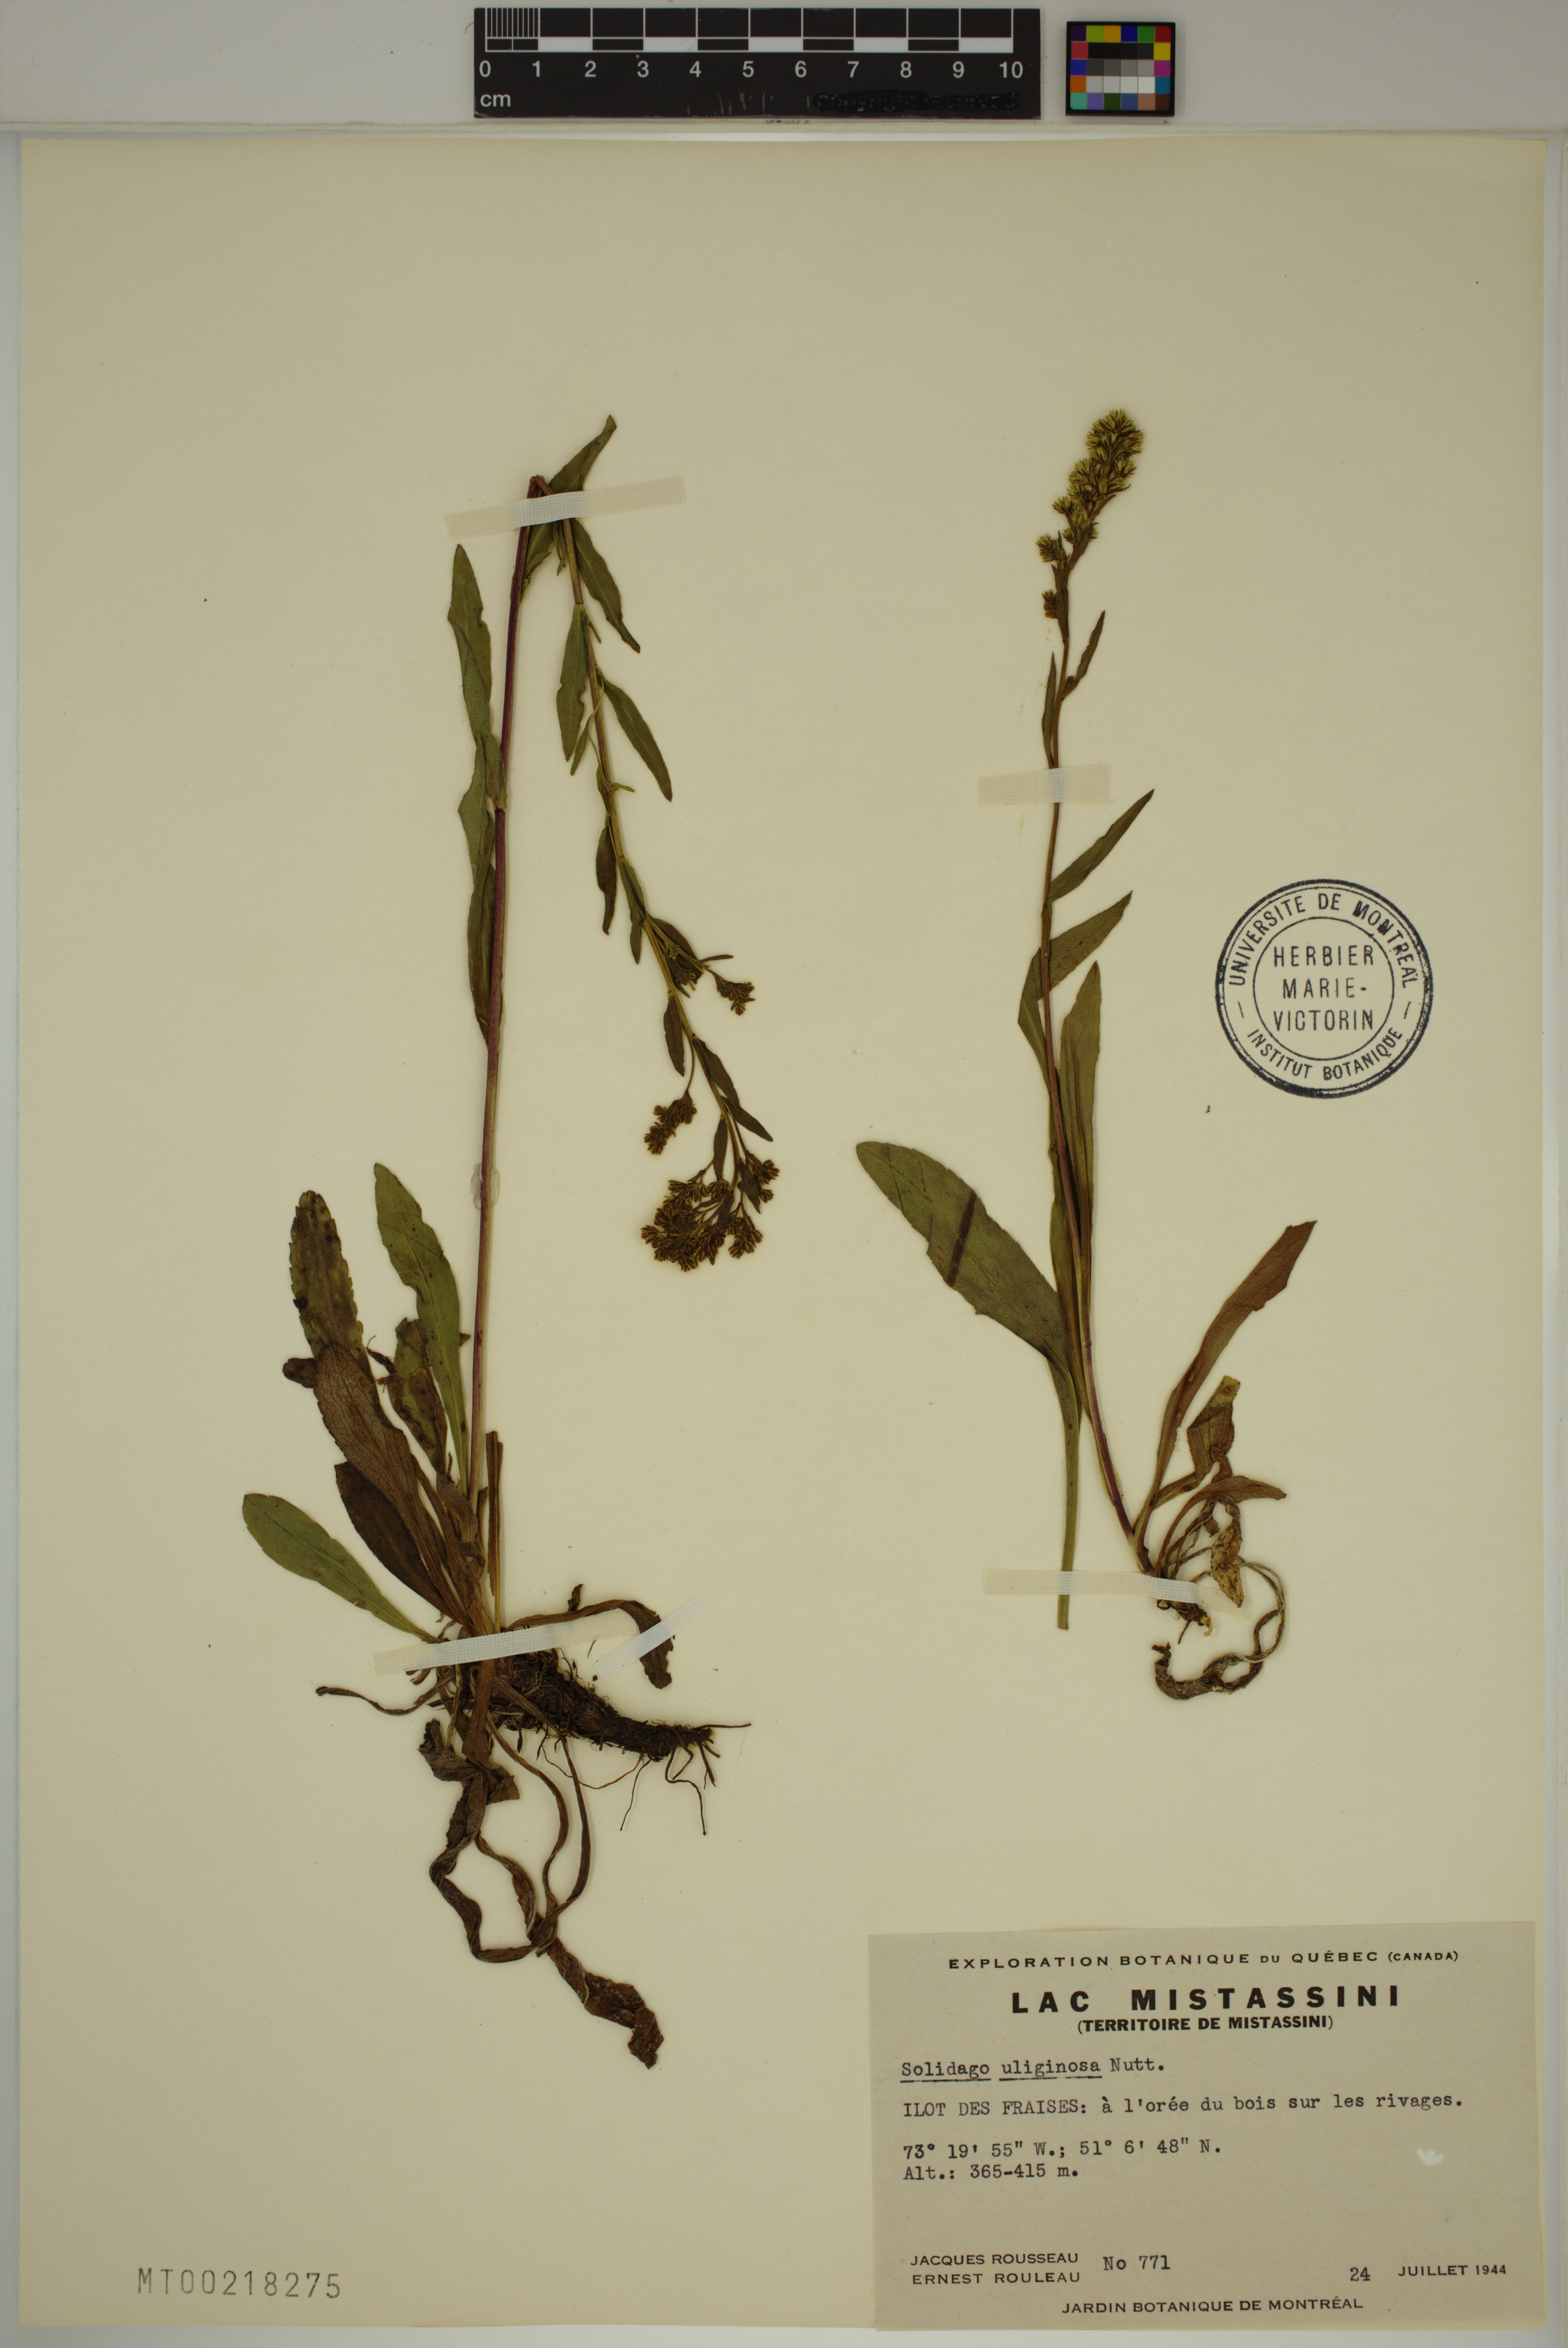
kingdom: Plantae
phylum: Tracheophyta
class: Magnoliopsida
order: Asterales
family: Asteraceae
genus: Solidago
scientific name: Solidago uliginosa
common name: Bog goldenrod
